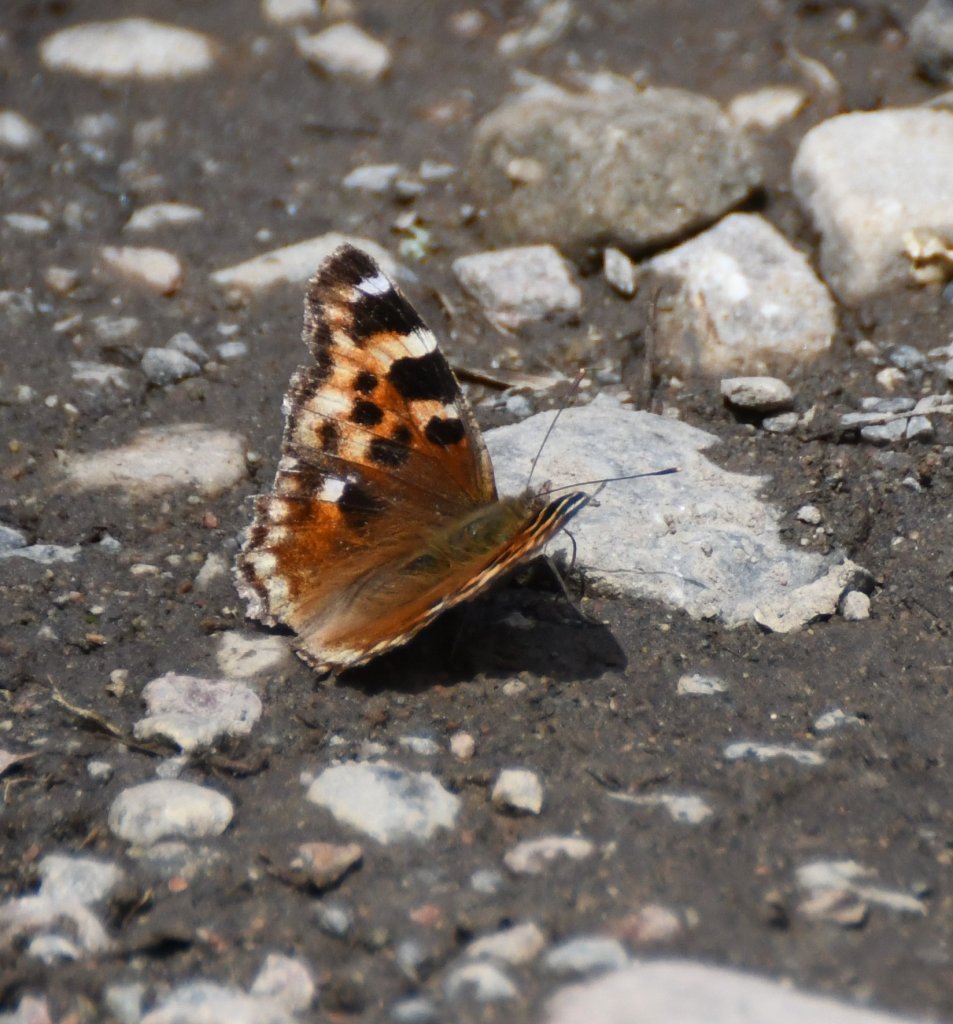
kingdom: Animalia
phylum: Arthropoda
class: Insecta
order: Lepidoptera
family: Nymphalidae
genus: Polygonia
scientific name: Polygonia vaualbum
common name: Compton Tortoiseshell
